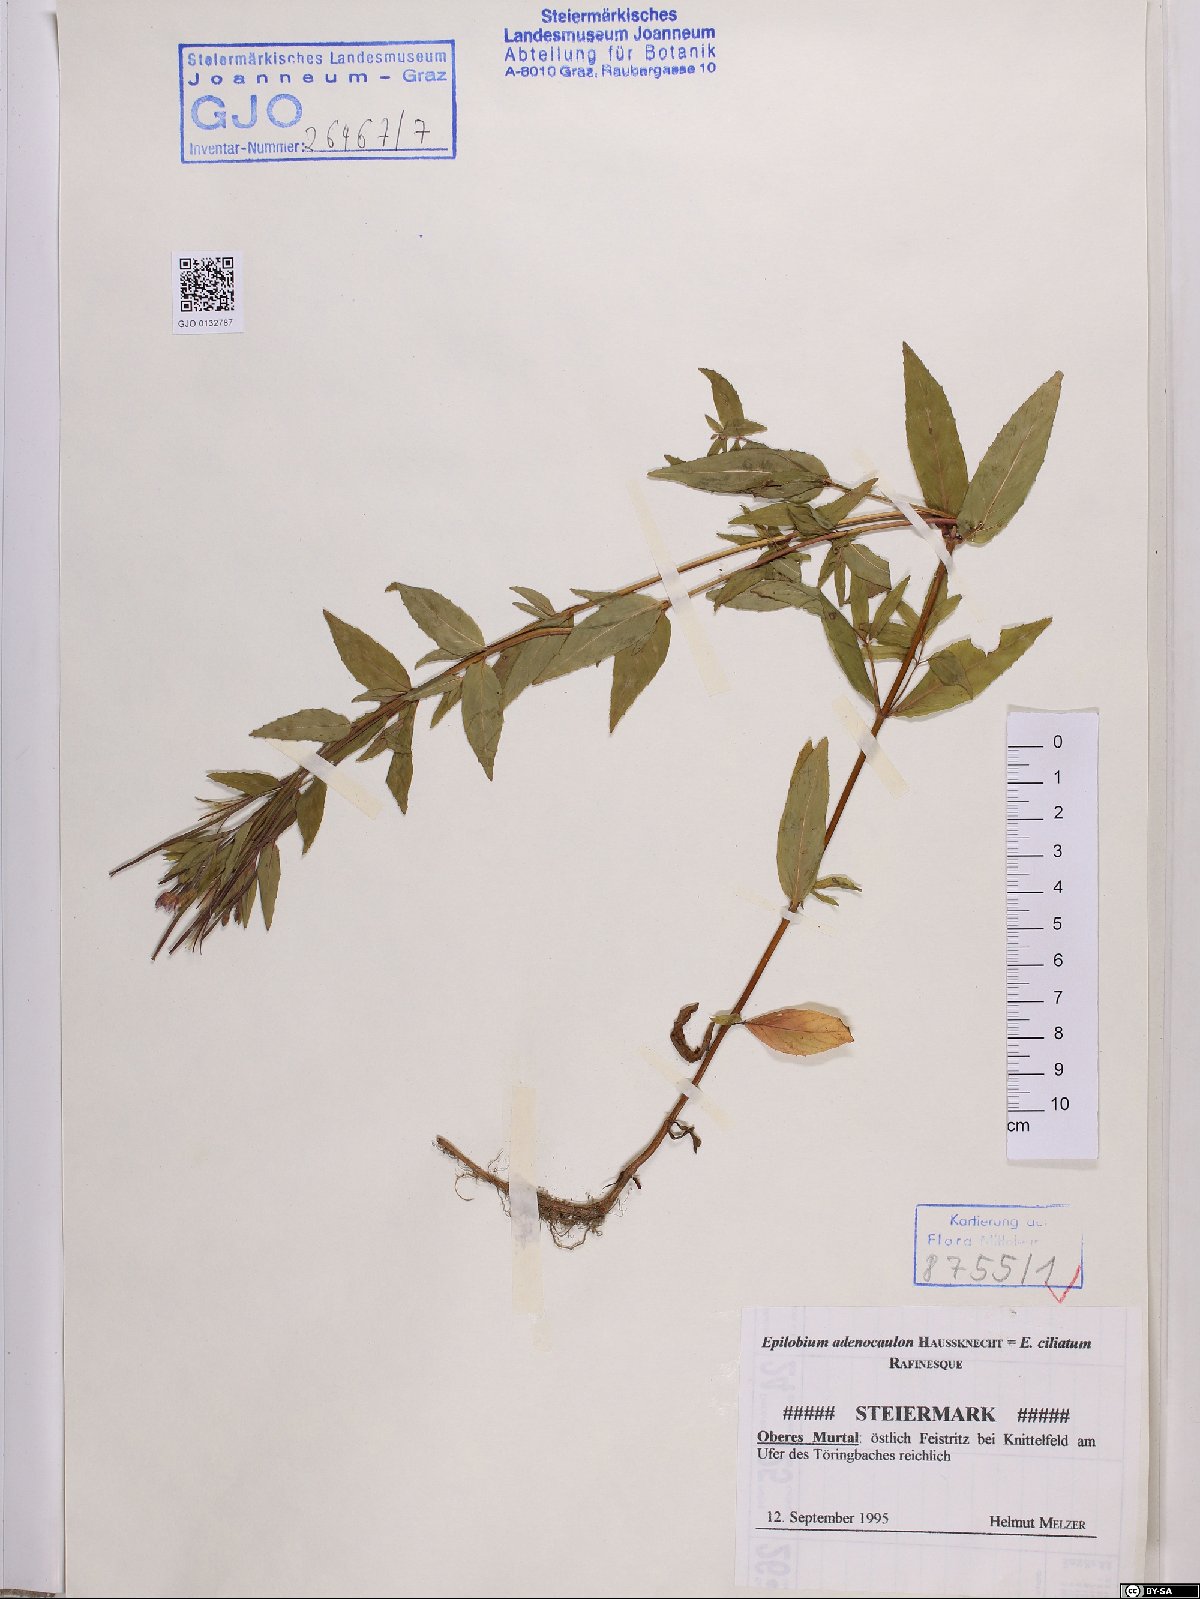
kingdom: Plantae
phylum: Tracheophyta
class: Magnoliopsida
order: Myrtales
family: Onagraceae
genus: Epilobium
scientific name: Epilobium ciliatum
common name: American willowherb
